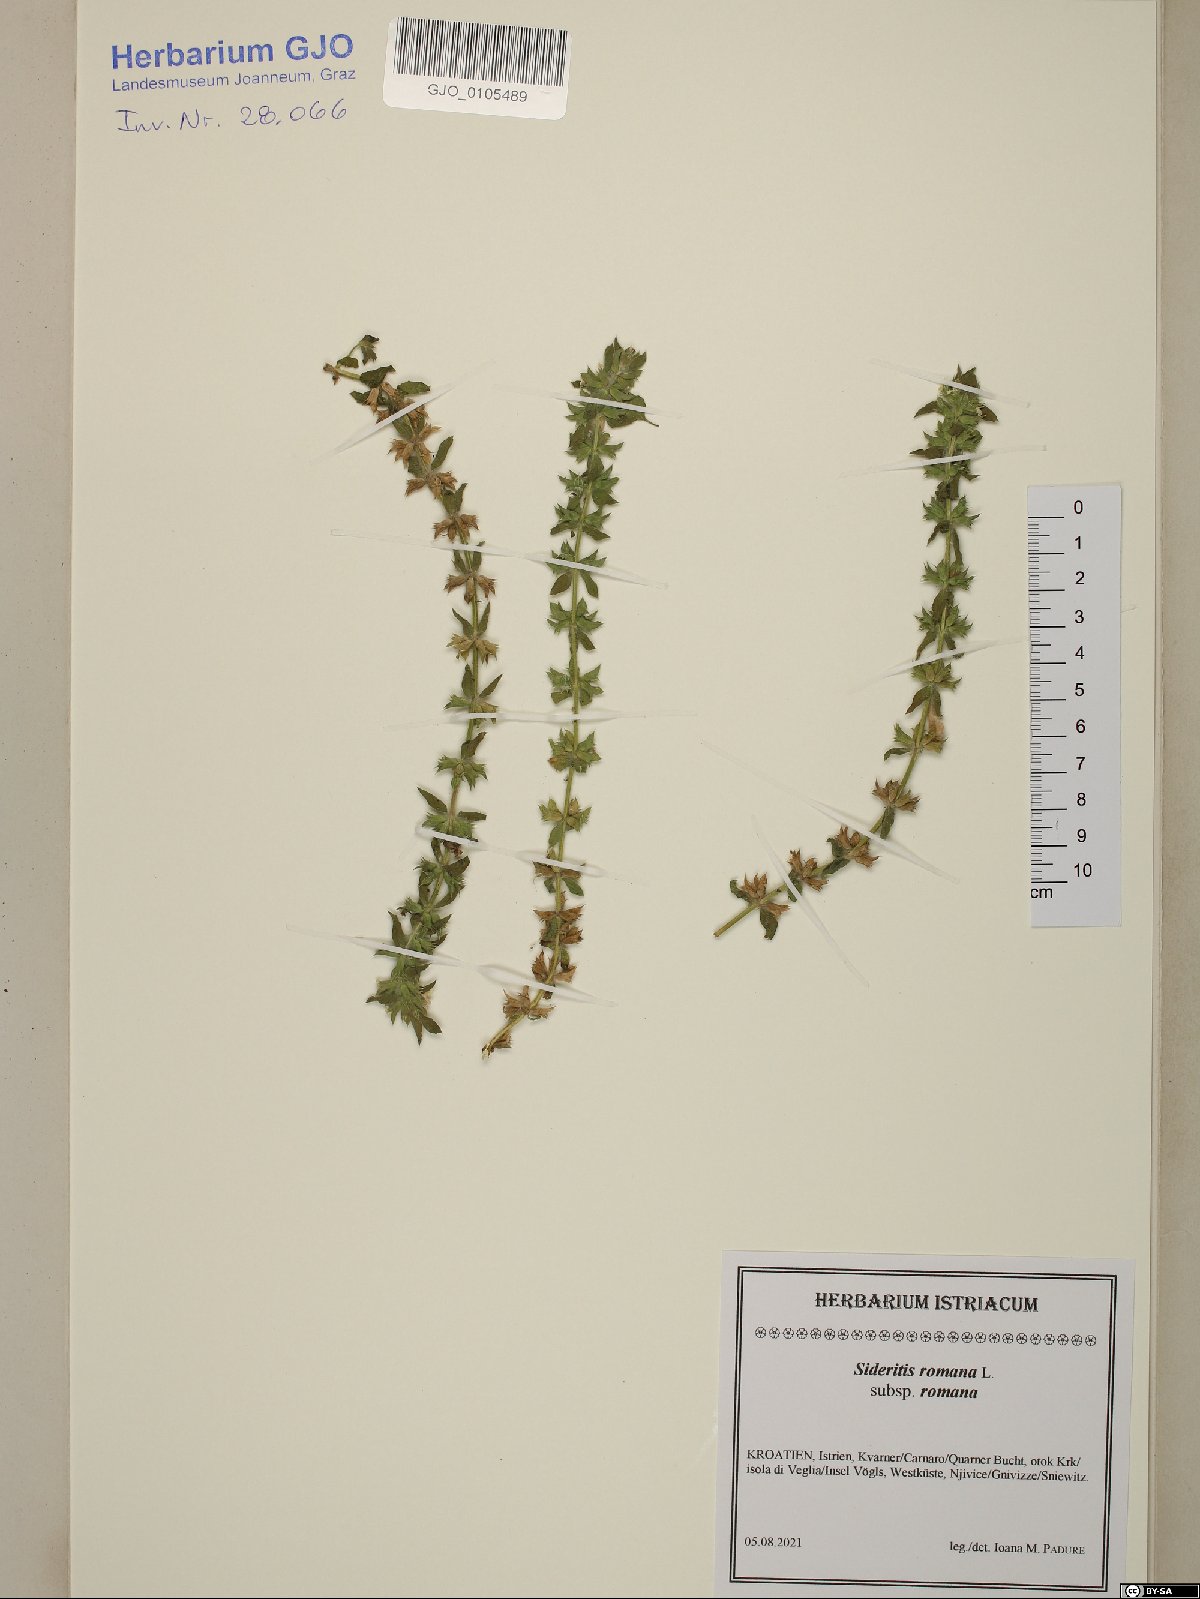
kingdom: Plantae
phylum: Tracheophyta
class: Magnoliopsida
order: Lamiales
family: Lamiaceae
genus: Sideritis
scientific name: Sideritis romana
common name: Simplebeak ironwort
